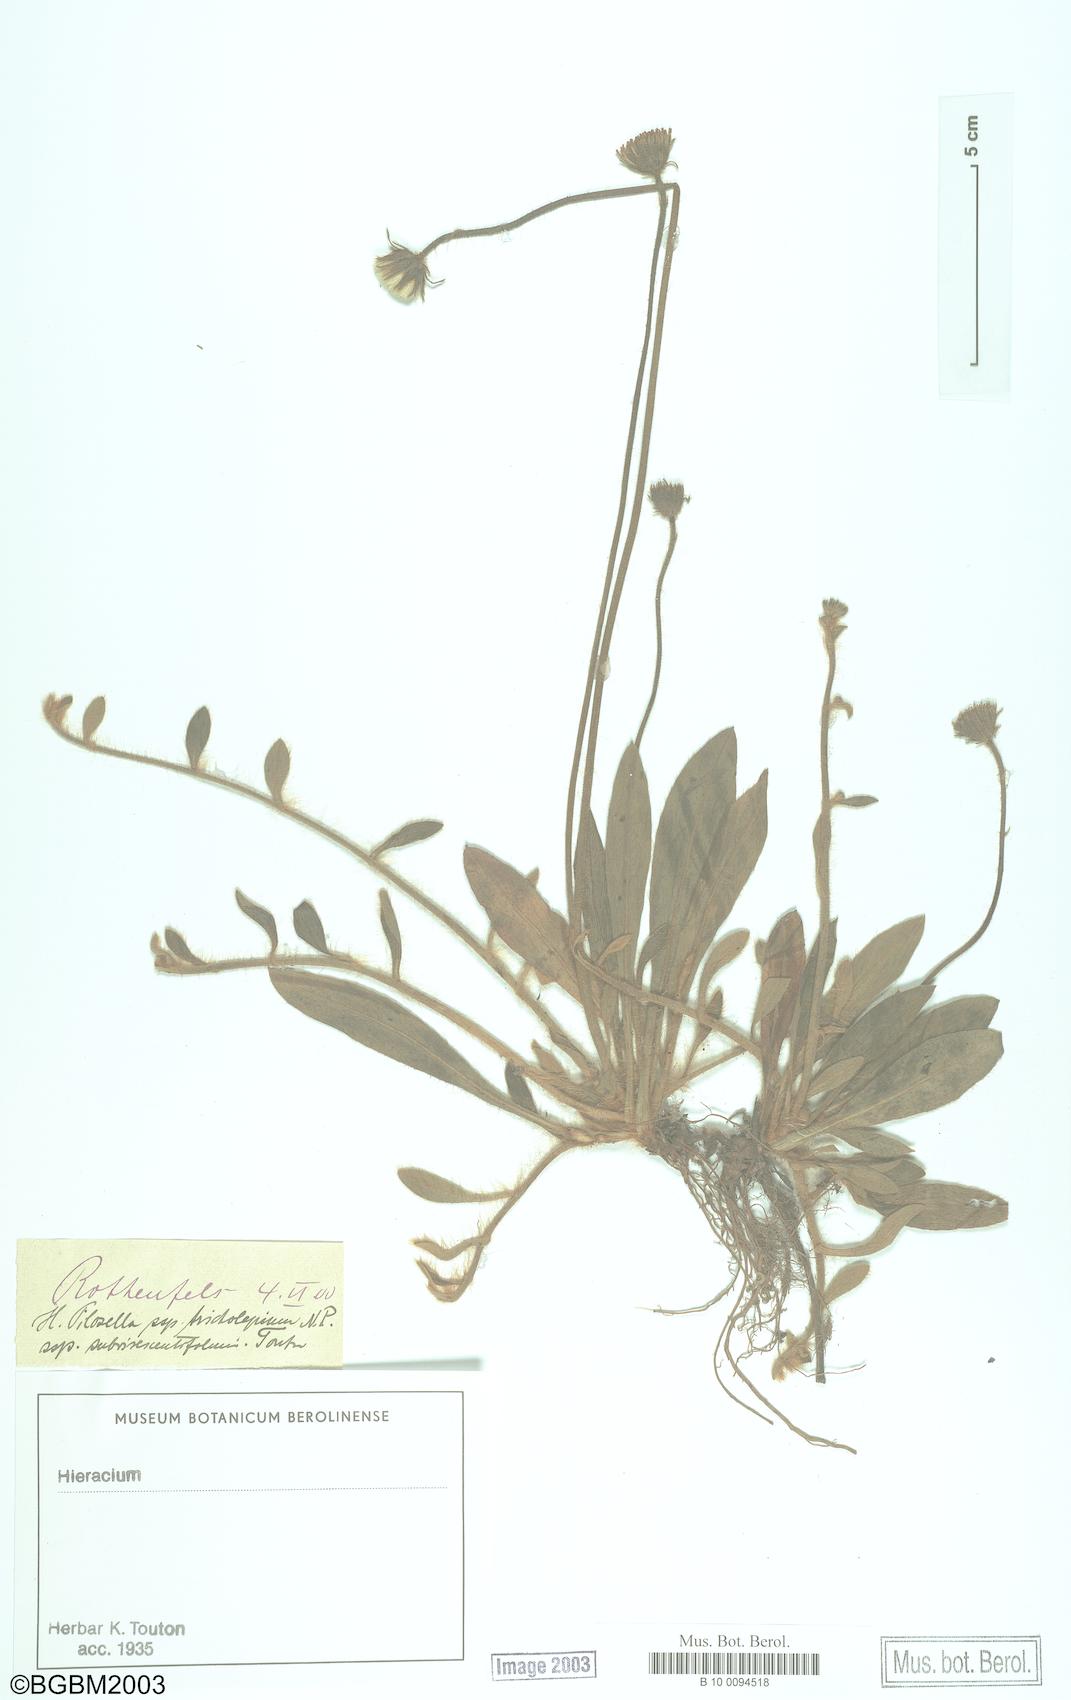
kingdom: Plantae
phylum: Tracheophyta
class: Magnoliopsida
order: Asterales
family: Asteraceae
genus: Pilosella
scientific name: Pilosella officinarum
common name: Mouse-ear hawkweed
